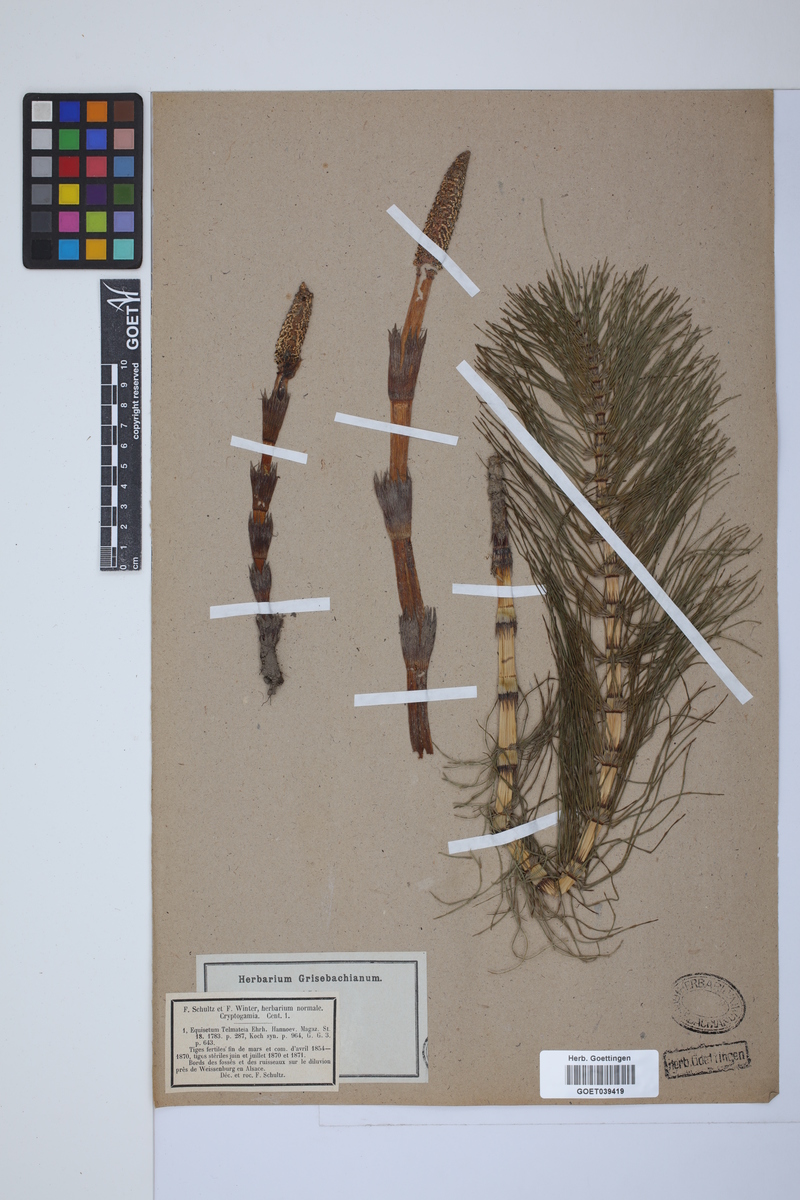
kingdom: Plantae
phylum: Tracheophyta
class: Polypodiopsida
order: Equisetales
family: Equisetaceae
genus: Equisetum
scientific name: Equisetum telmateia
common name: Great horsetail
